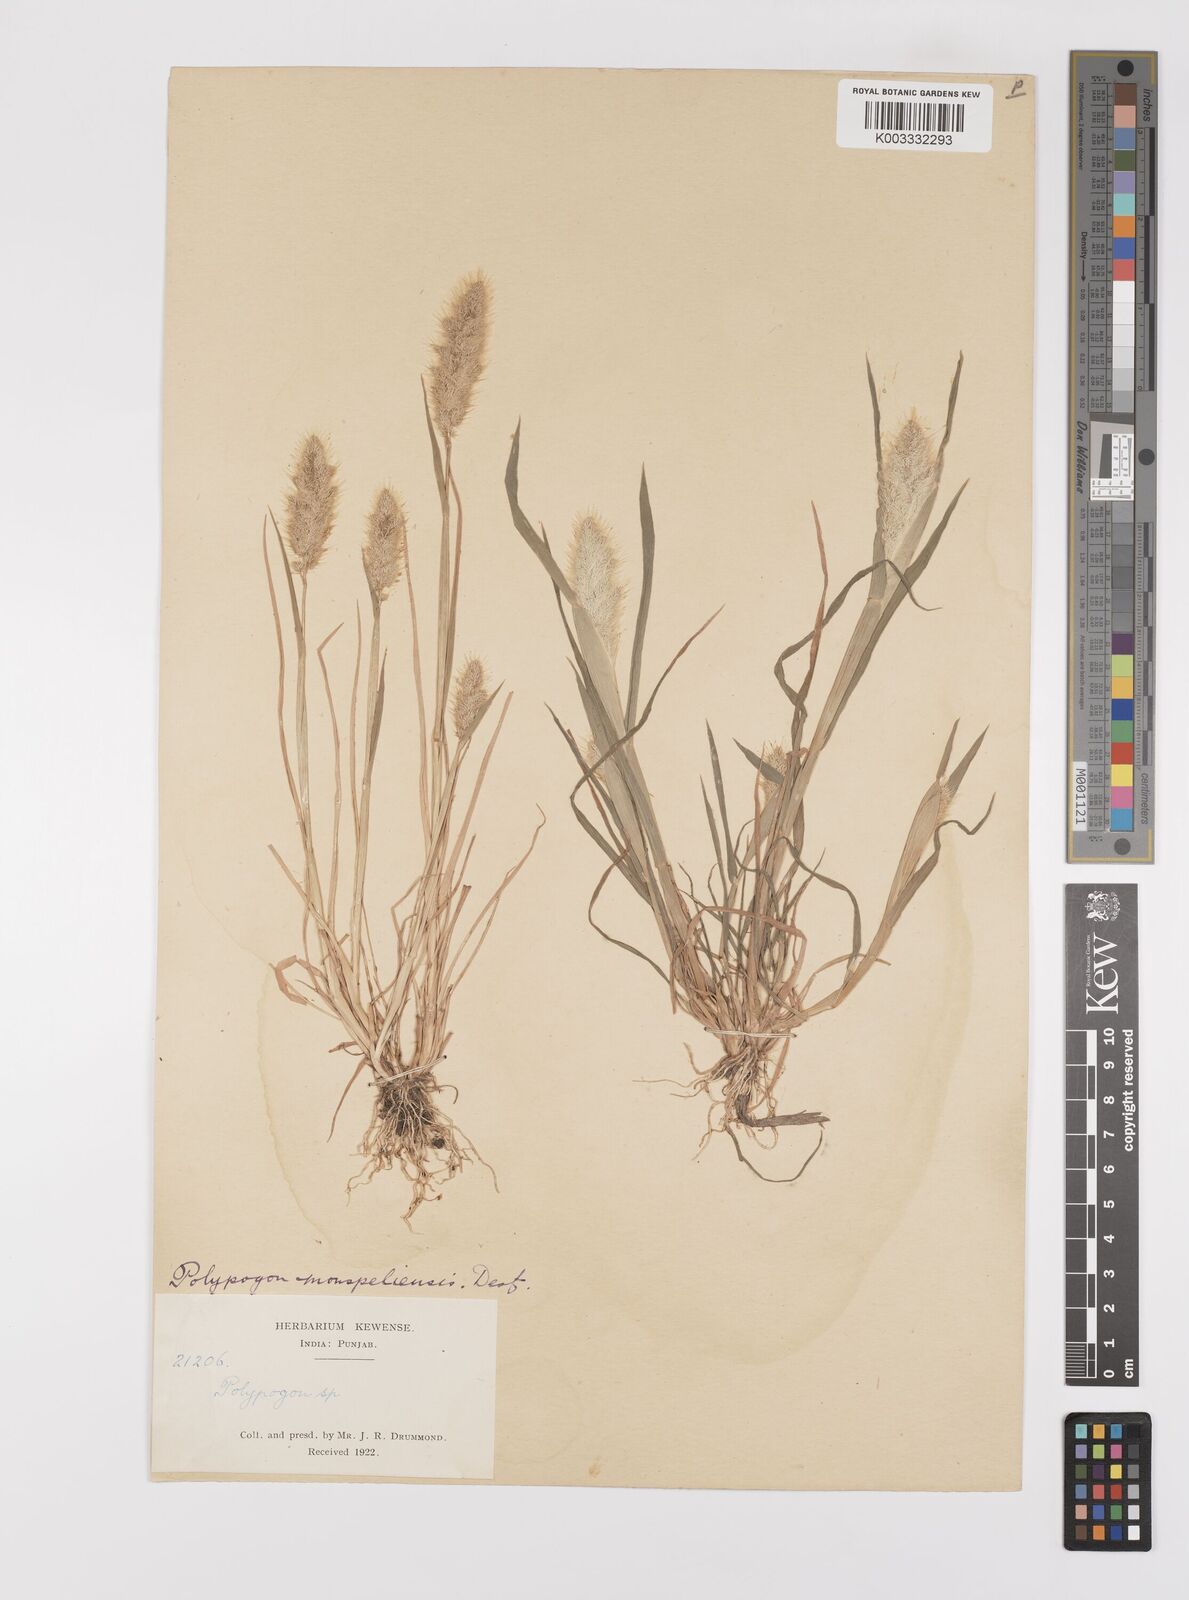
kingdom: Plantae
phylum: Tracheophyta
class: Liliopsida
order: Poales
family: Poaceae
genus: Polypogon
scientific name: Polypogon monspeliensis
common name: Annual rabbitsfoot grass
